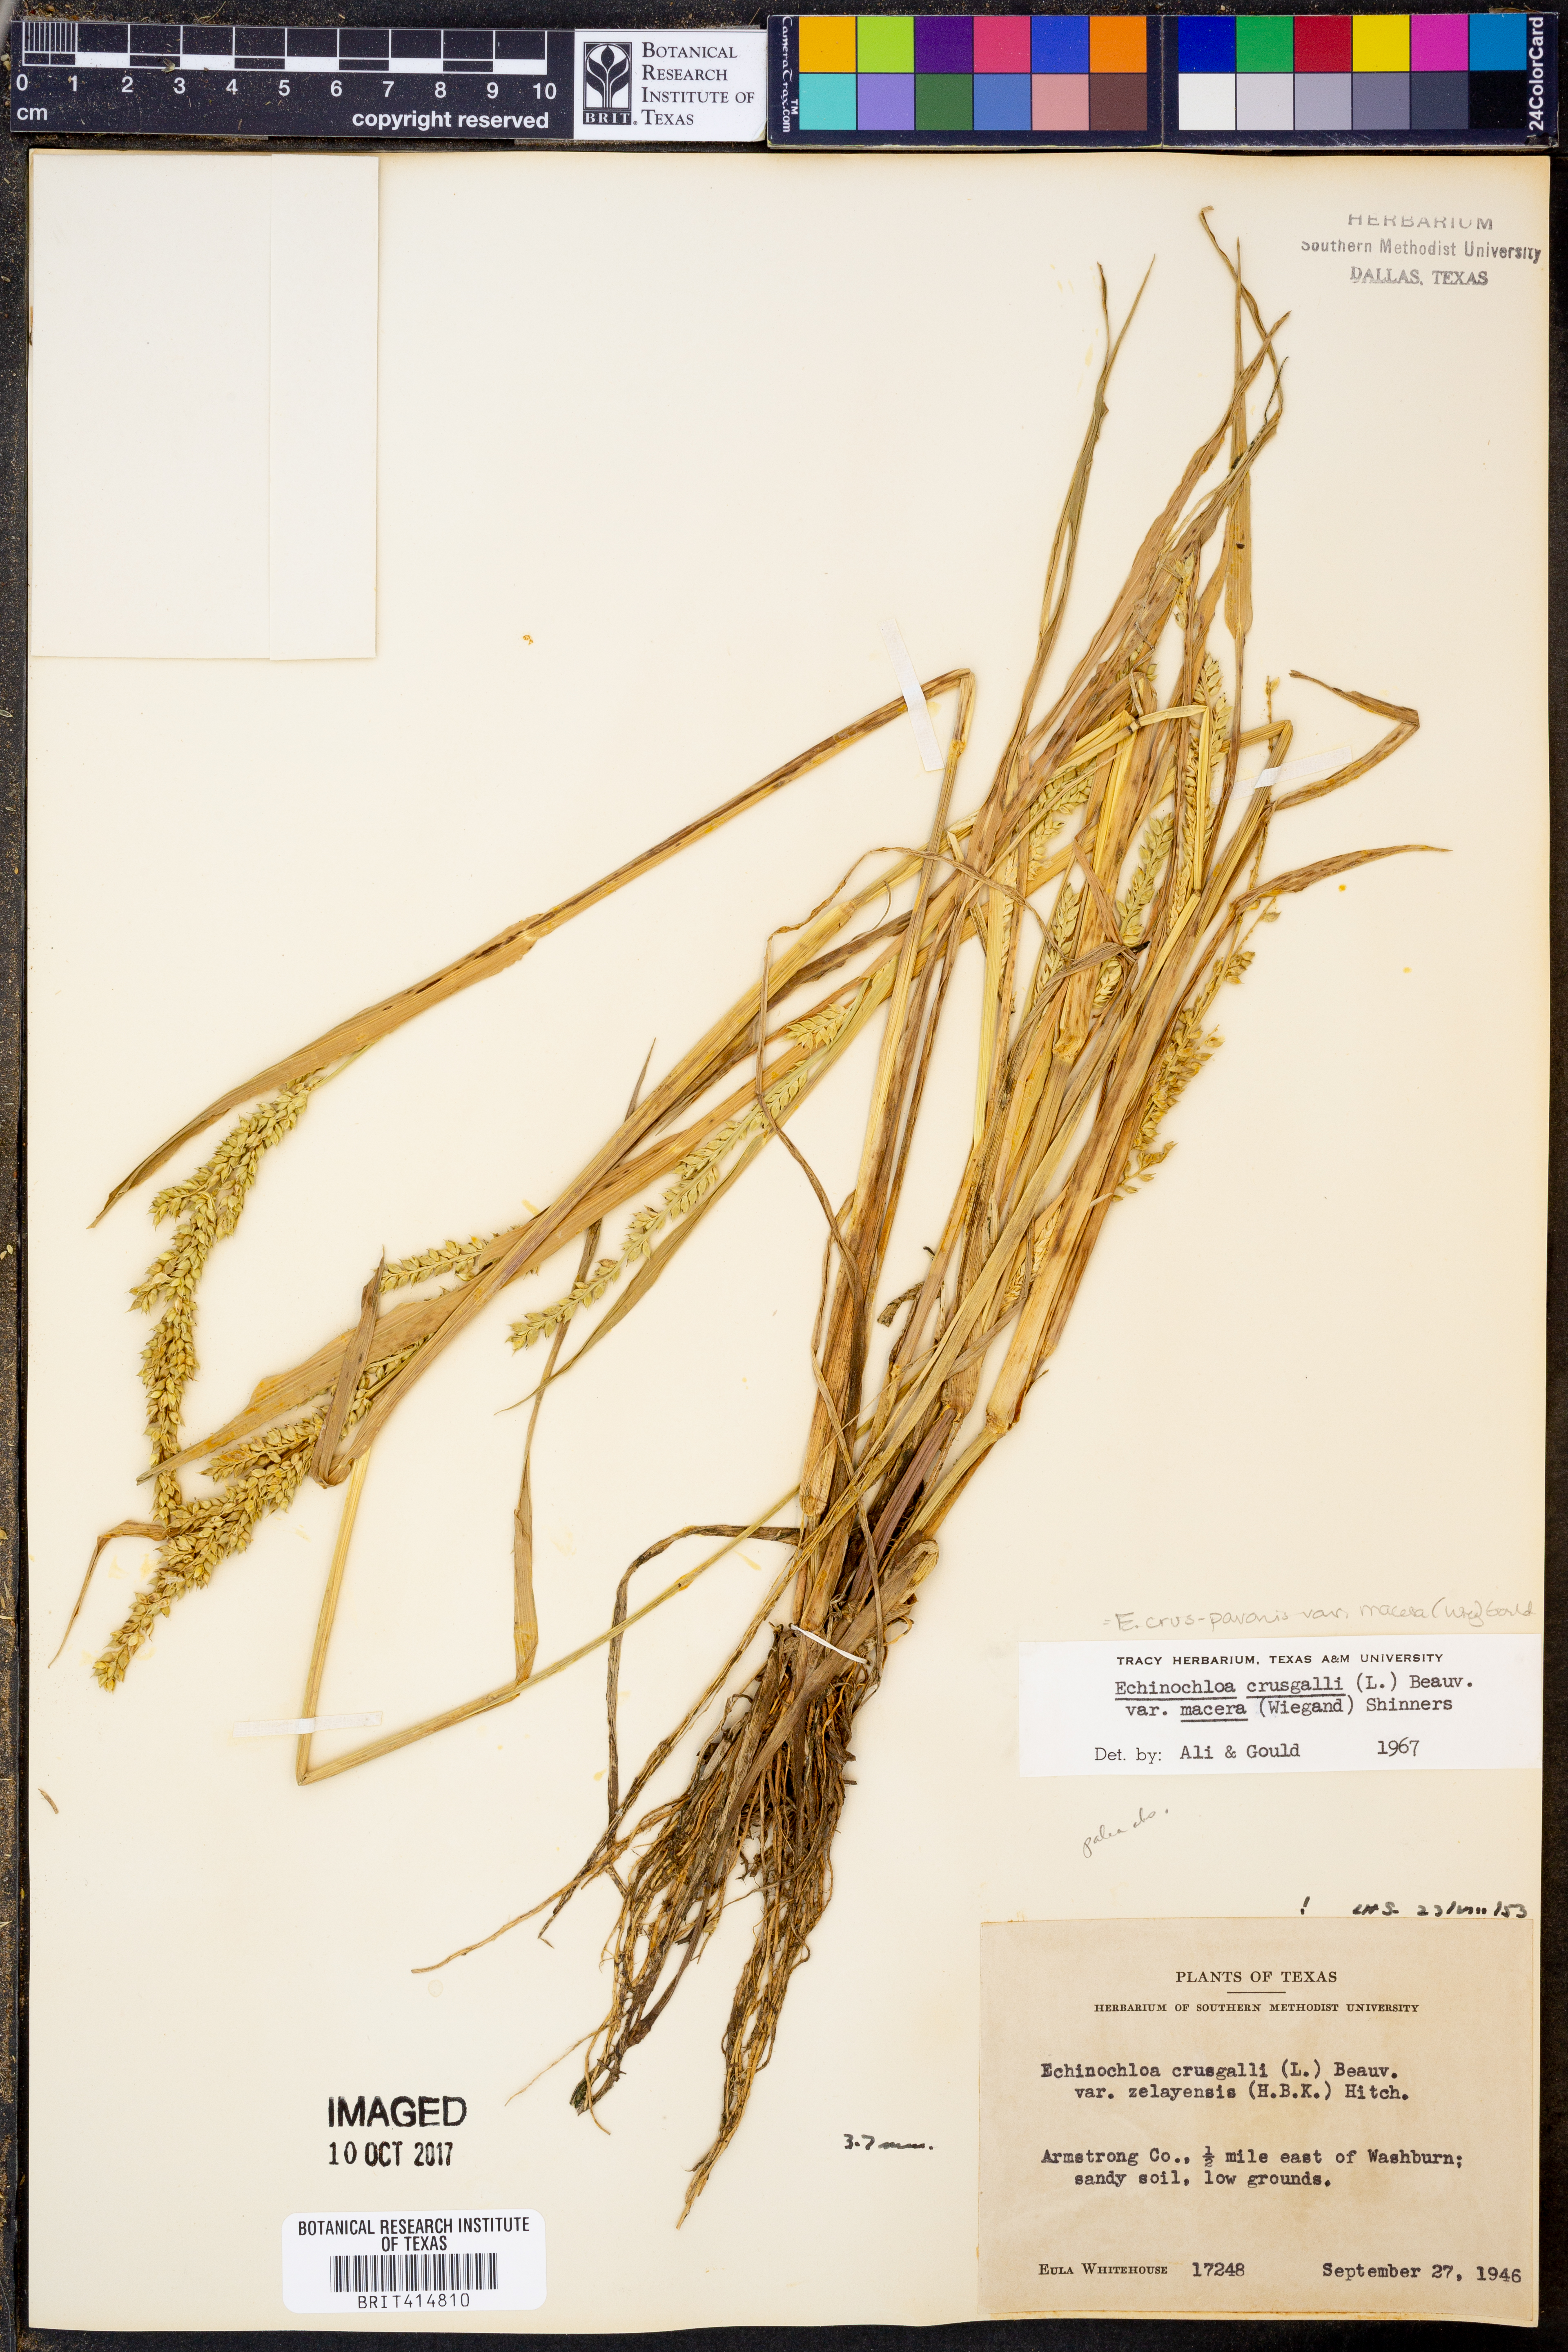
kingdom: Plantae
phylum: Tracheophyta
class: Liliopsida
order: Poales
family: Poaceae
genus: Echinochloa
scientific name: Echinochloa crus-pavonis
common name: Gulf cockspur grass
